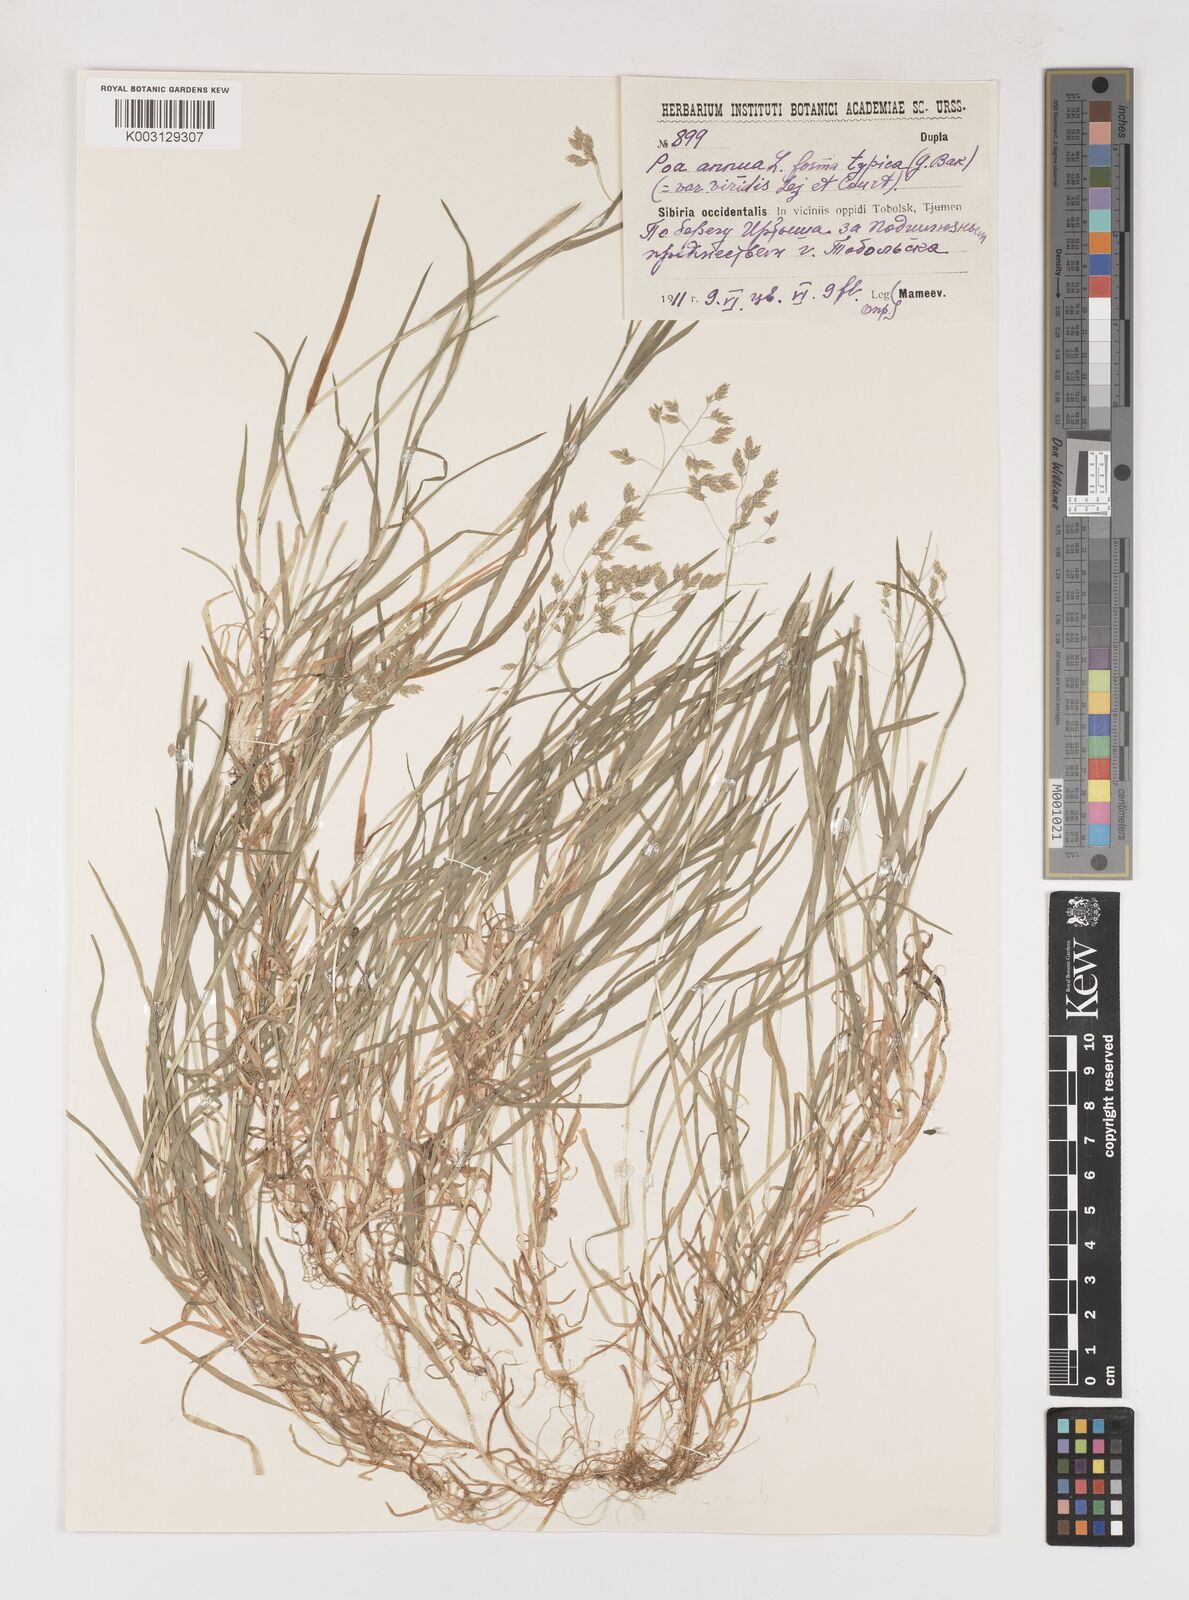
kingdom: Plantae
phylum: Tracheophyta
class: Liliopsida
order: Poales
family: Poaceae
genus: Poa
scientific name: Poa annua
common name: Annual bluegrass
